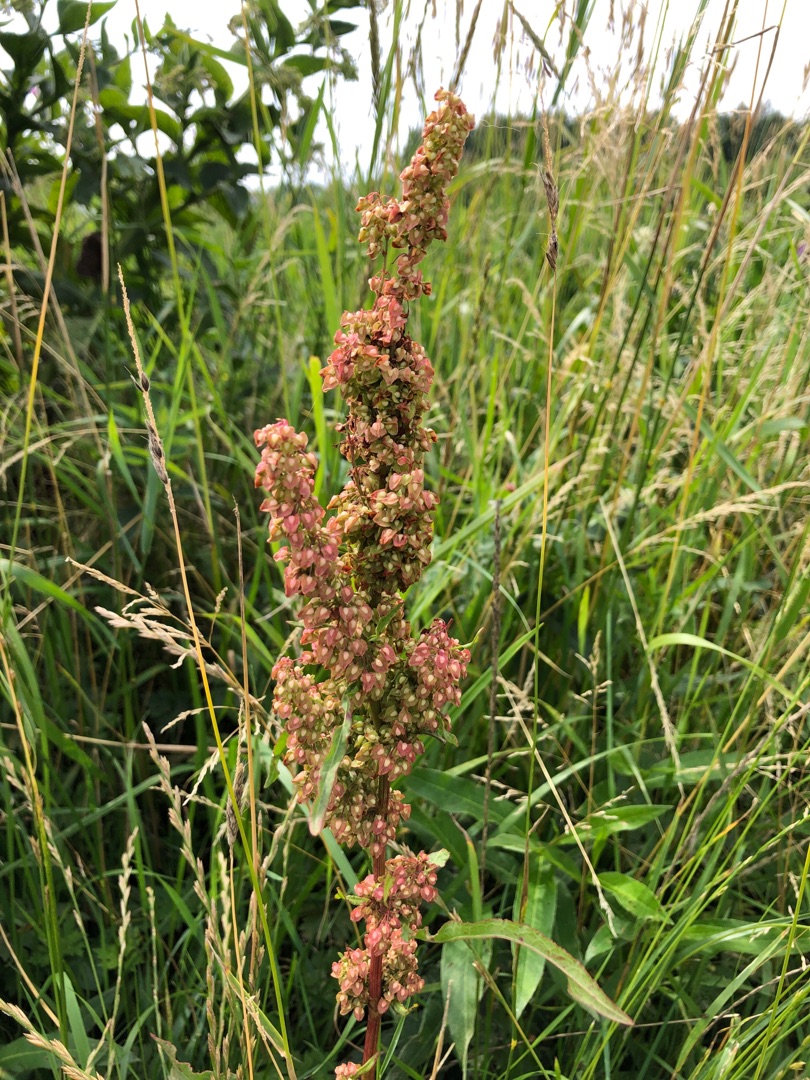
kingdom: Plantae
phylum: Tracheophyta
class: Magnoliopsida
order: Caryophyllales
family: Polygonaceae
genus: Rumex
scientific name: Rumex crispus
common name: Kruset skræppe
